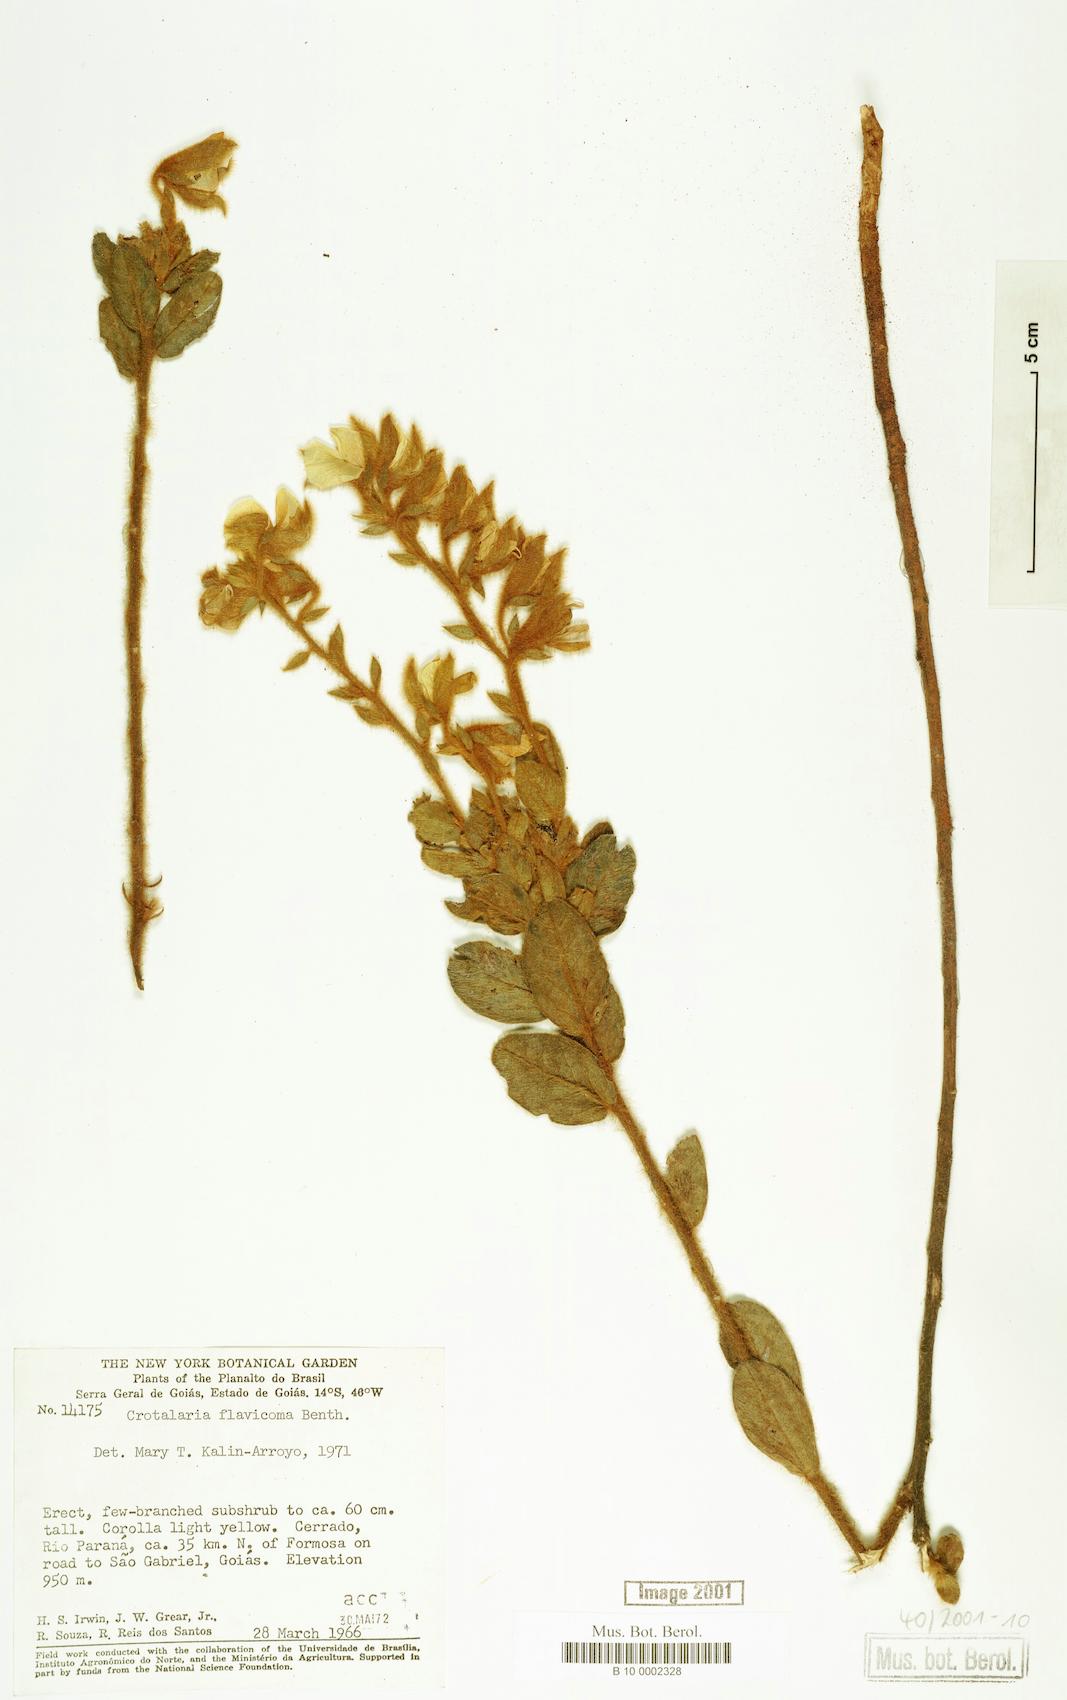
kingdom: Plantae
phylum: Tracheophyta
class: Magnoliopsida
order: Fabales
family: Fabaceae
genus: Crotalaria
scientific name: Crotalaria flavicoma
